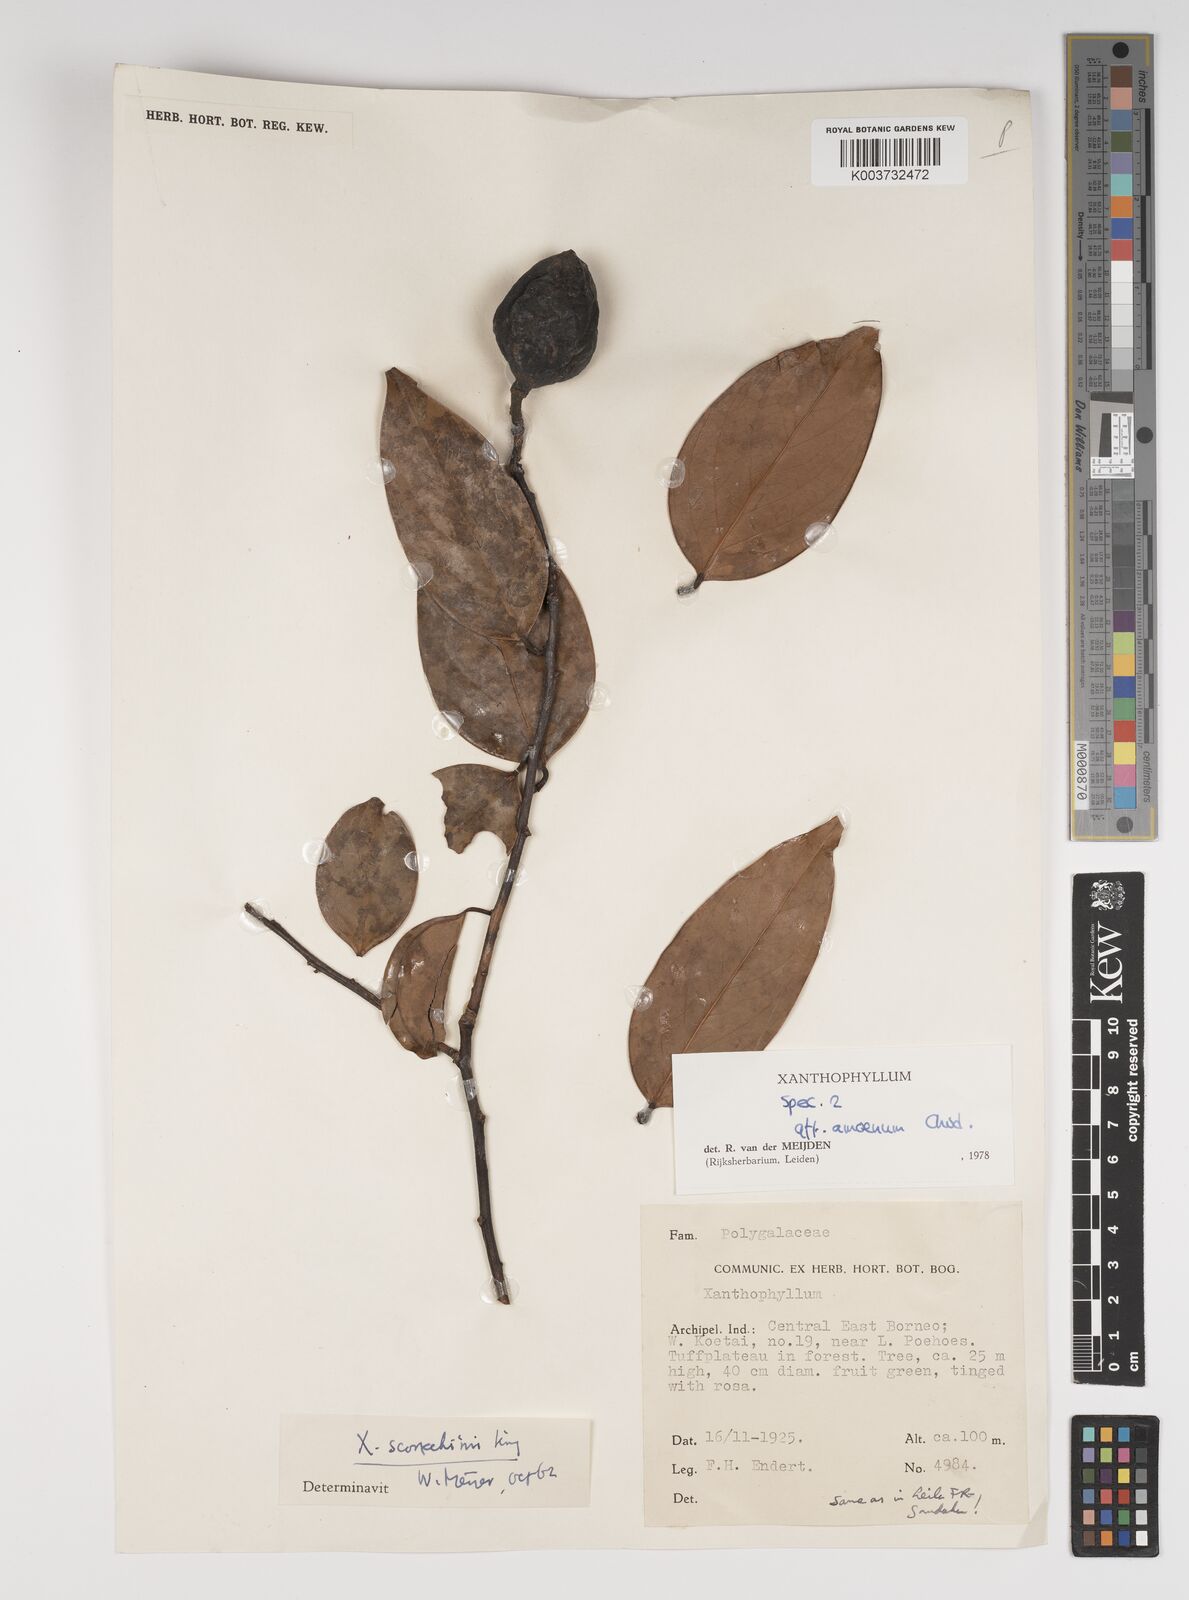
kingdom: Plantae
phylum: Tracheophyta
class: Magnoliopsida
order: Fabales
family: Polygalaceae
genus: Xanthophyllum
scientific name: Xanthophyllum stipitatum
